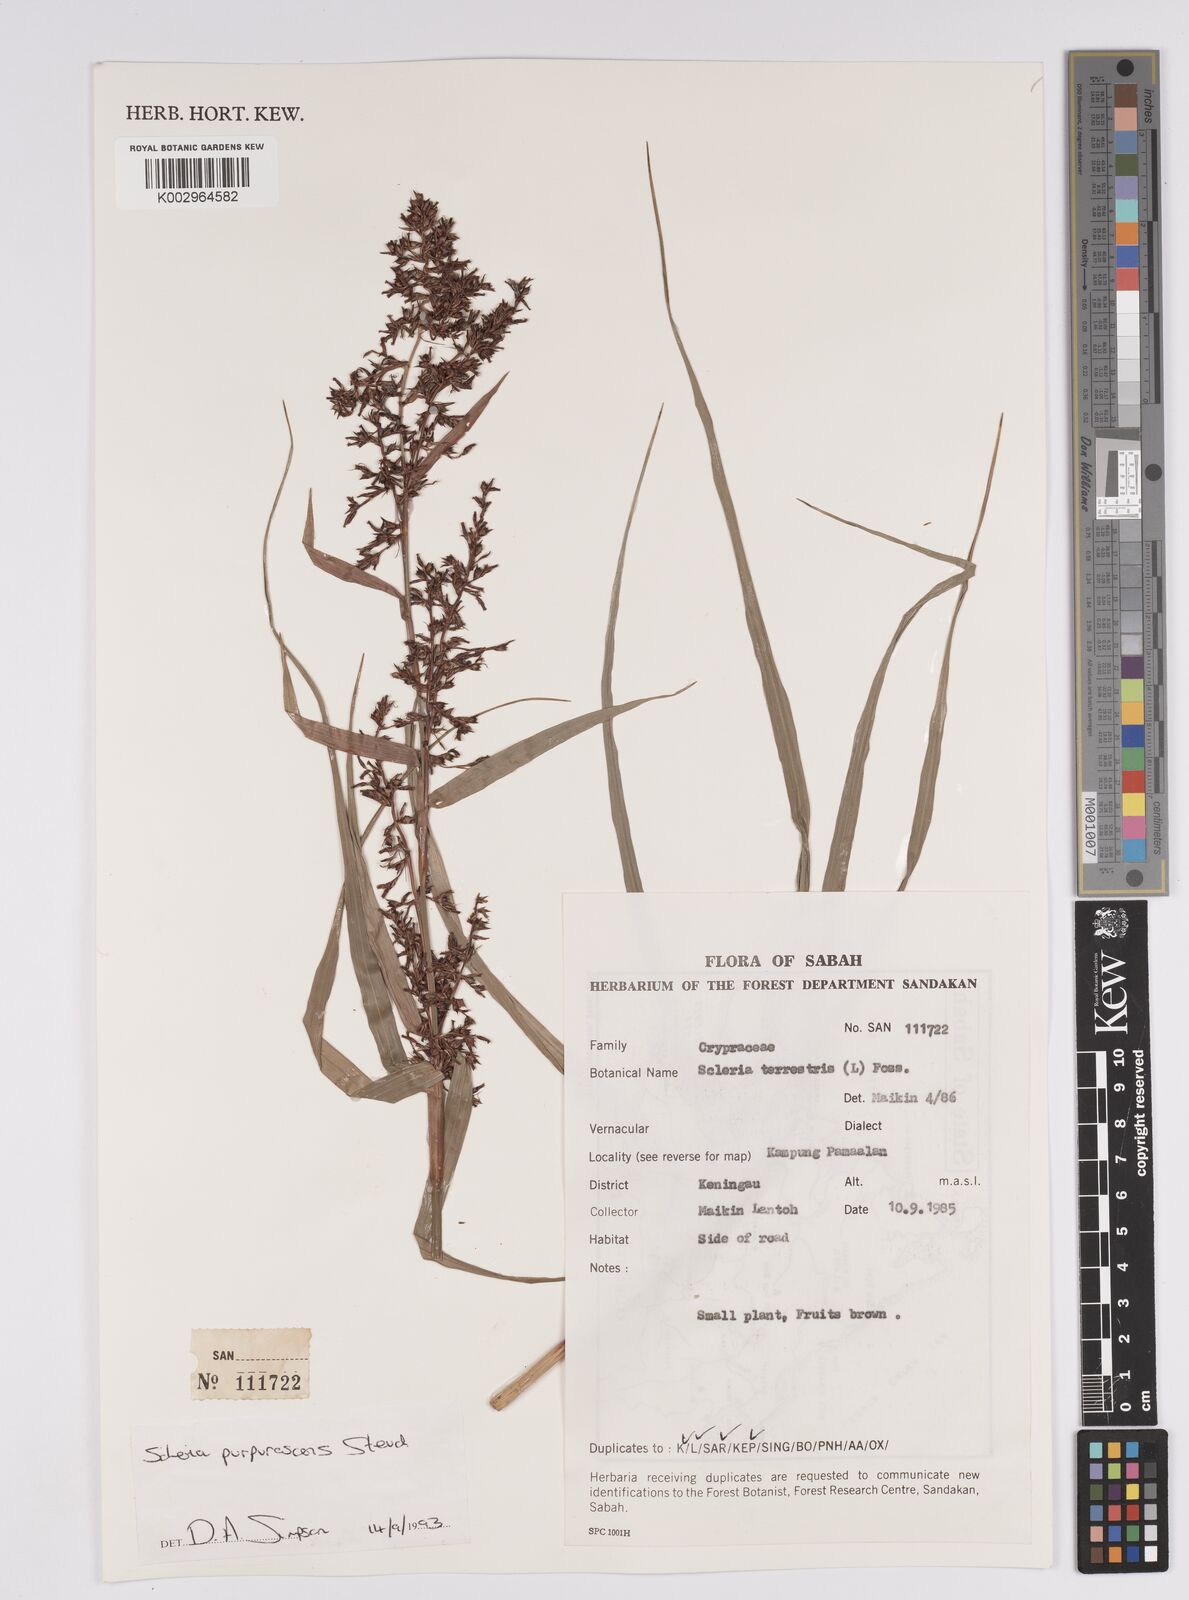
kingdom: Plantae
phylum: Tracheophyta
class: Liliopsida
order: Poales
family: Cyperaceae
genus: Scleria
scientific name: Scleria purpurascens
